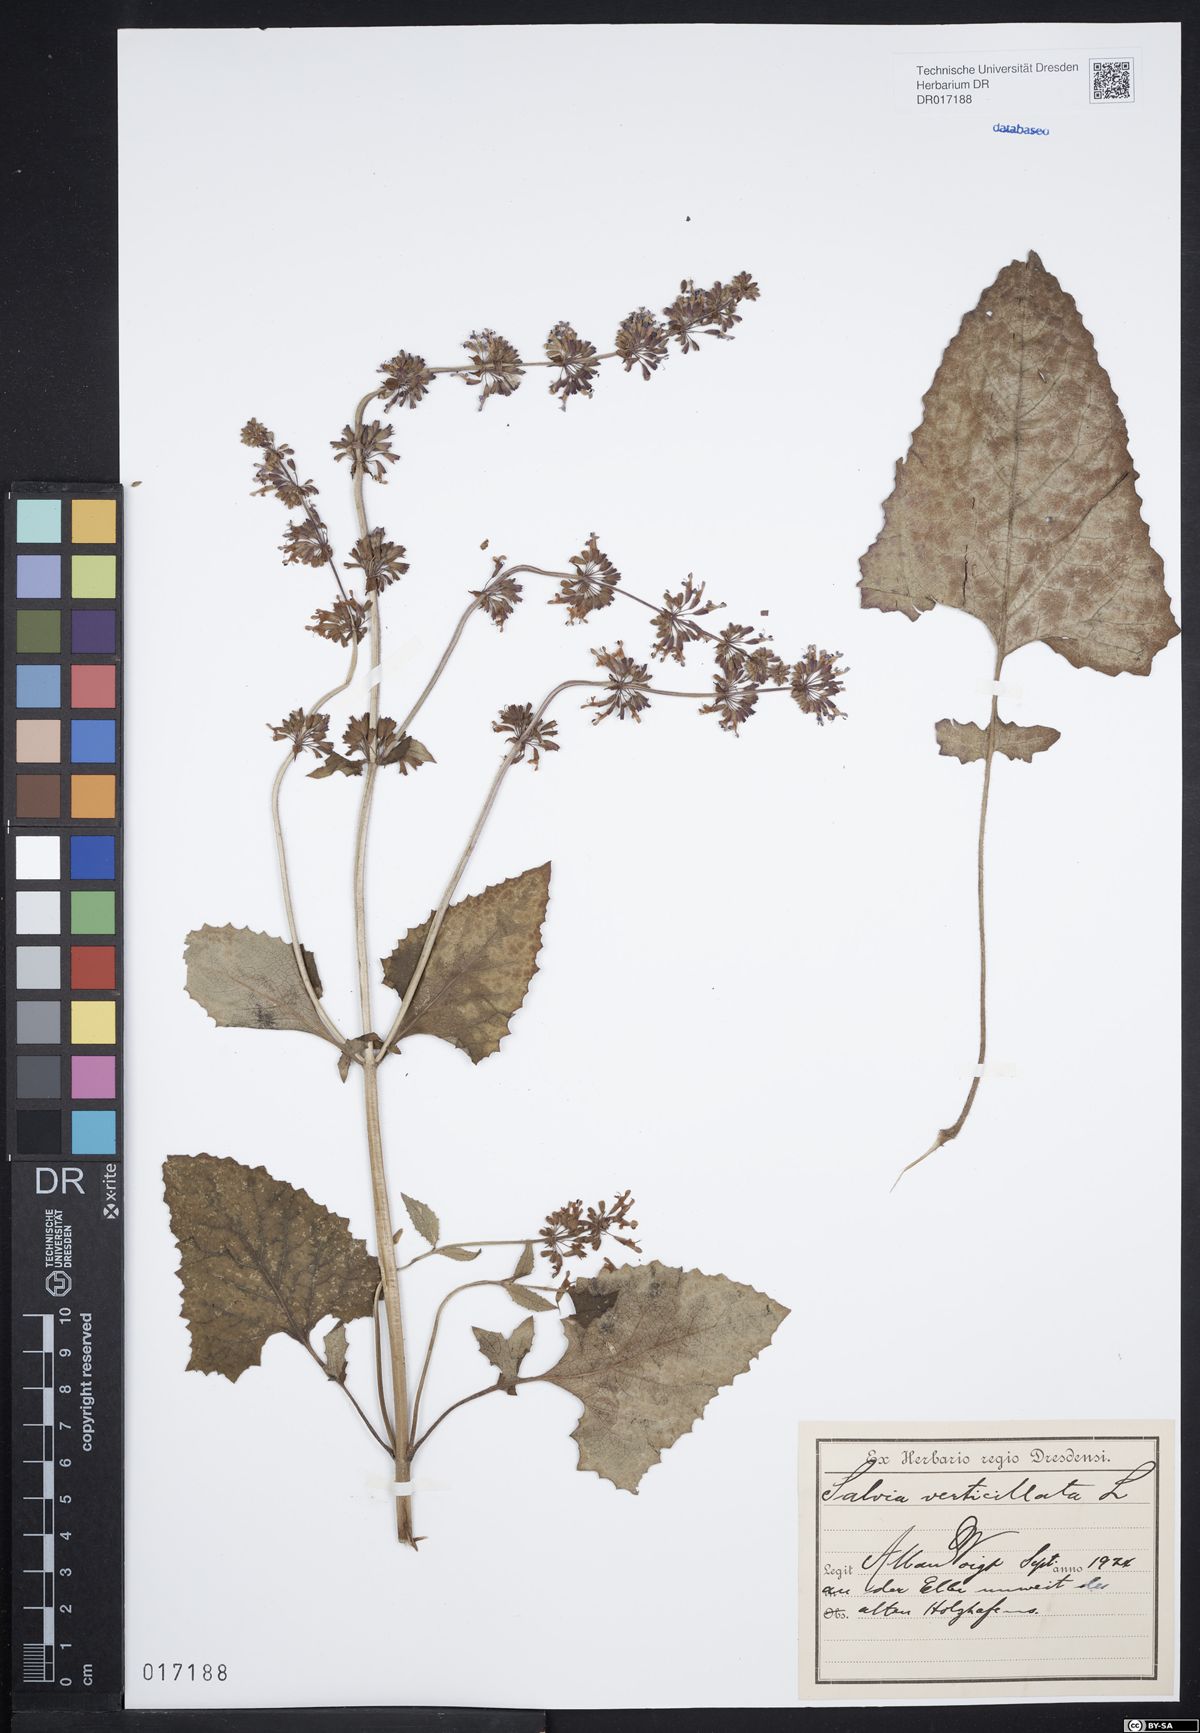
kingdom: Plantae
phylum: Tracheophyta
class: Magnoliopsida
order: Lamiales
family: Lamiaceae
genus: Salvia
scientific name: Salvia verticillata
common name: Whorled clary
